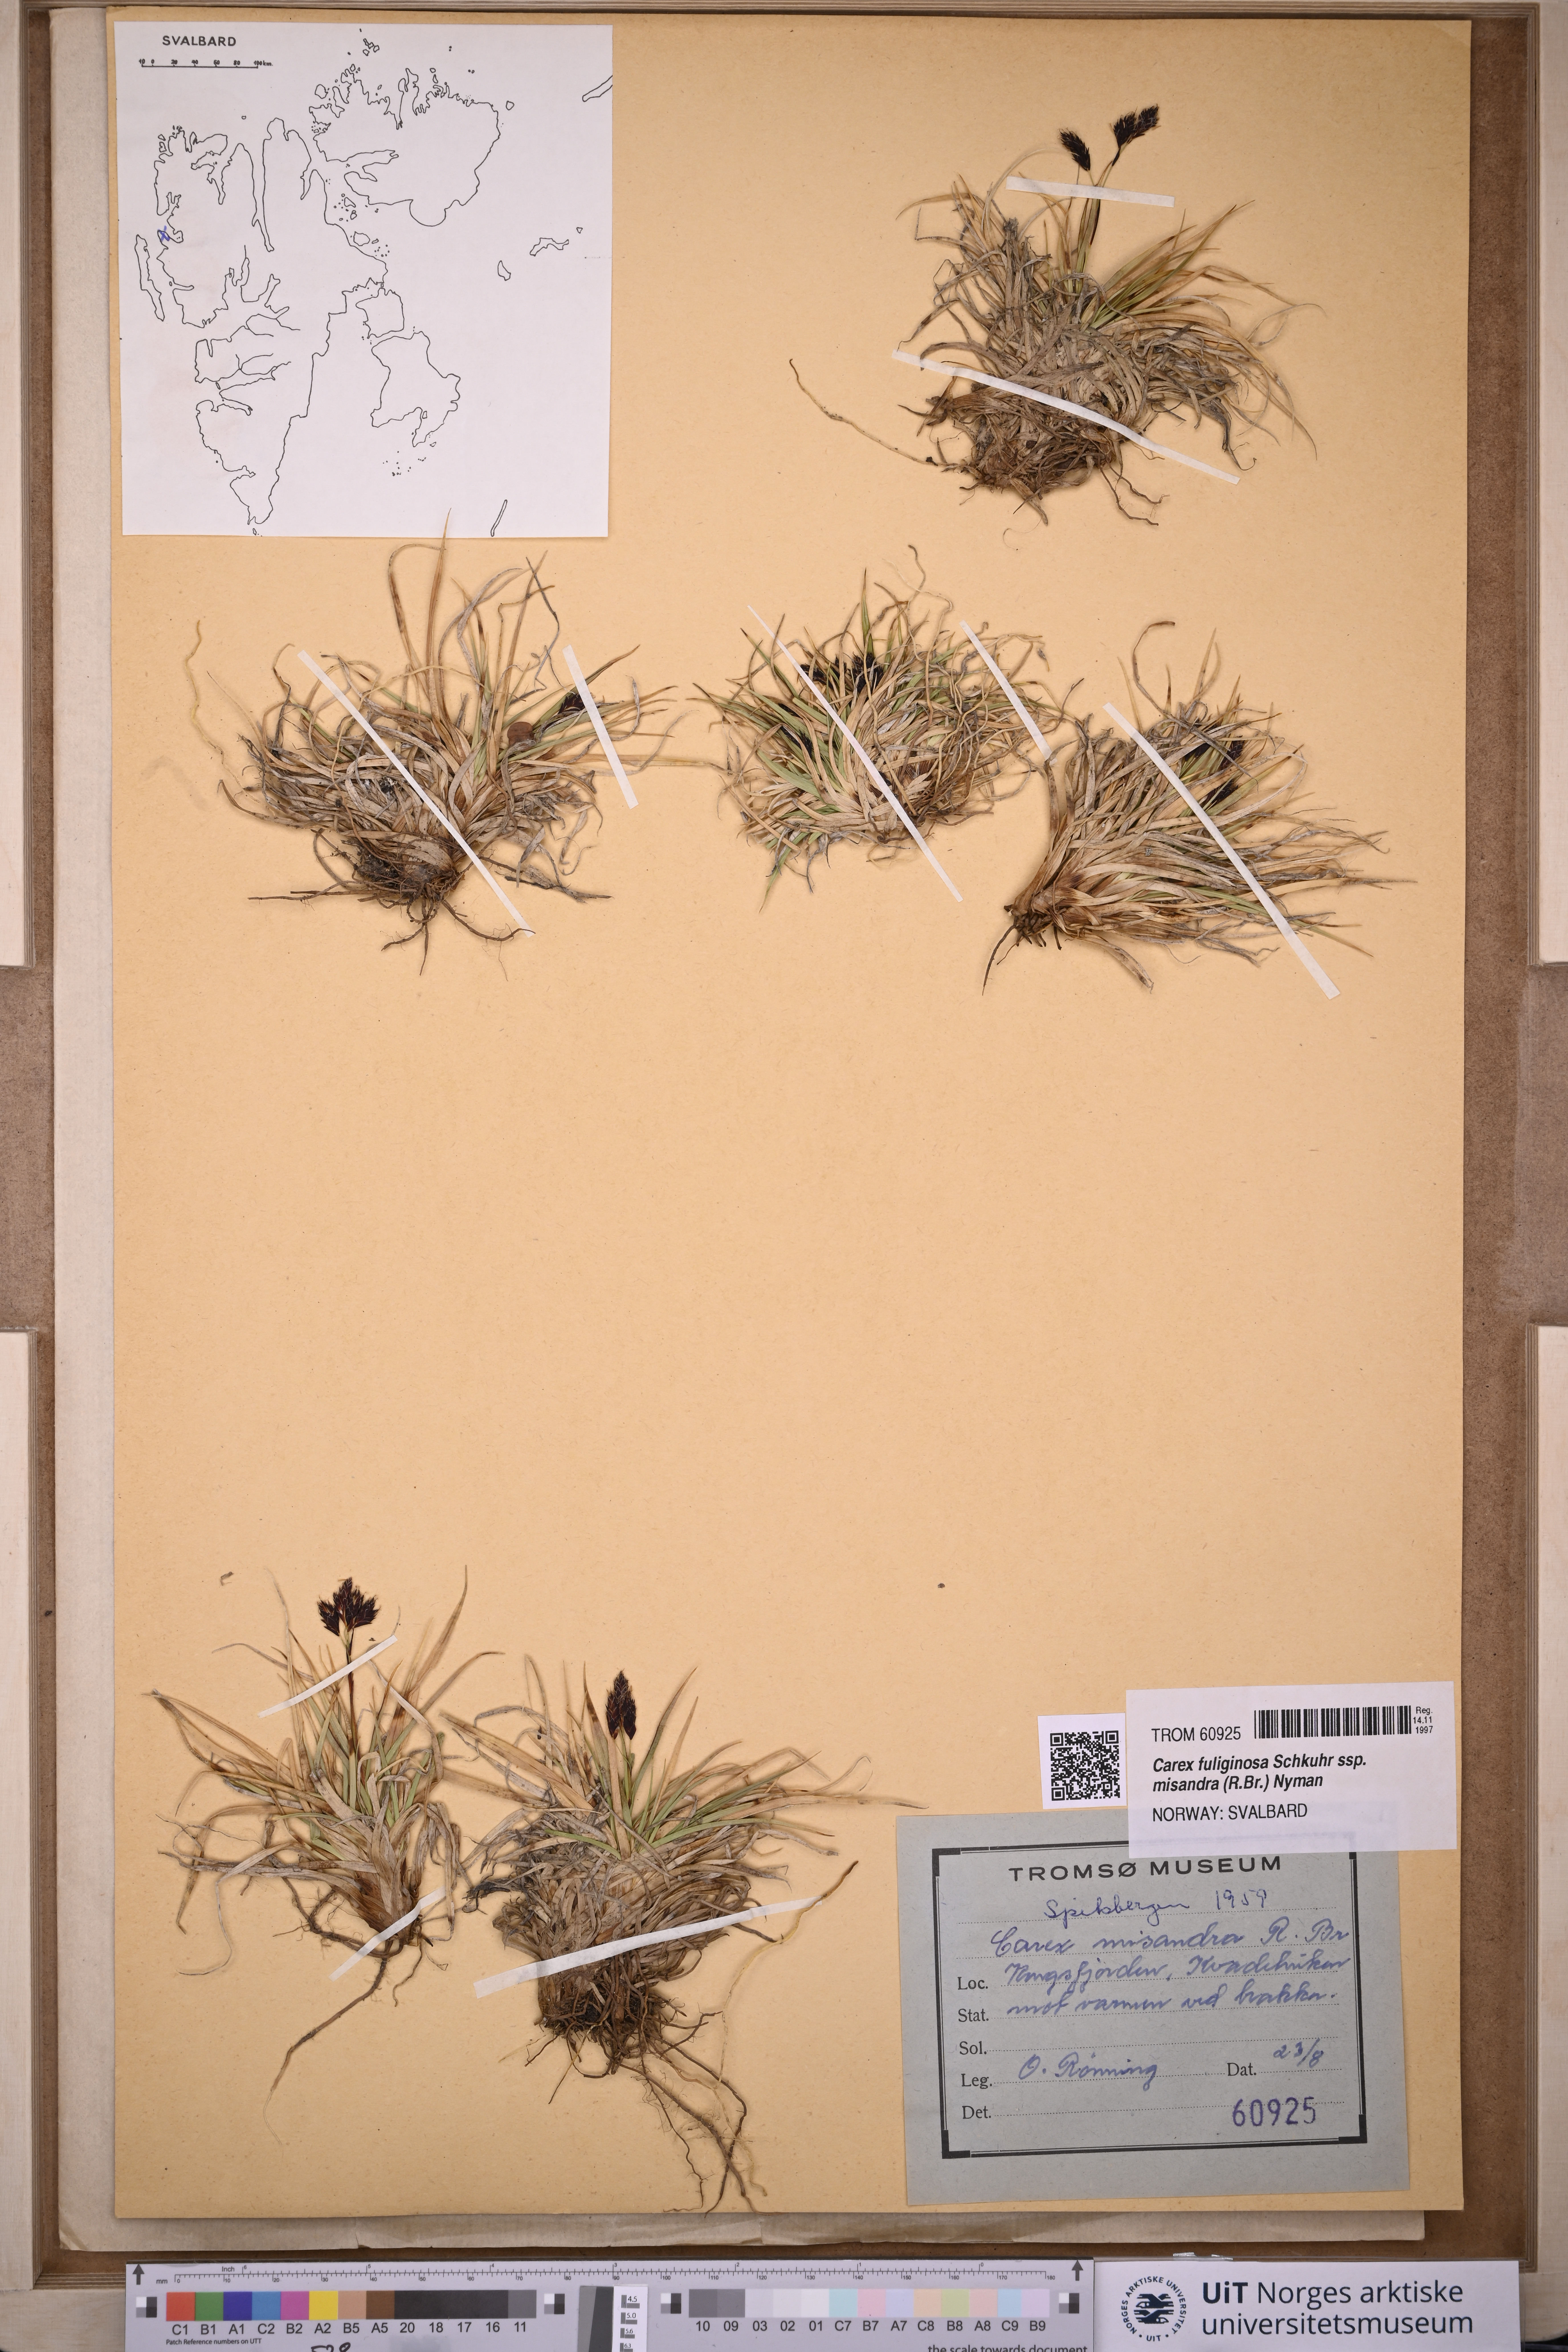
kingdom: Plantae
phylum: Tracheophyta
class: Liliopsida
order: Poales
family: Cyperaceae
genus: Carex
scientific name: Carex fuliginosa
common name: Few-flowered sedge
